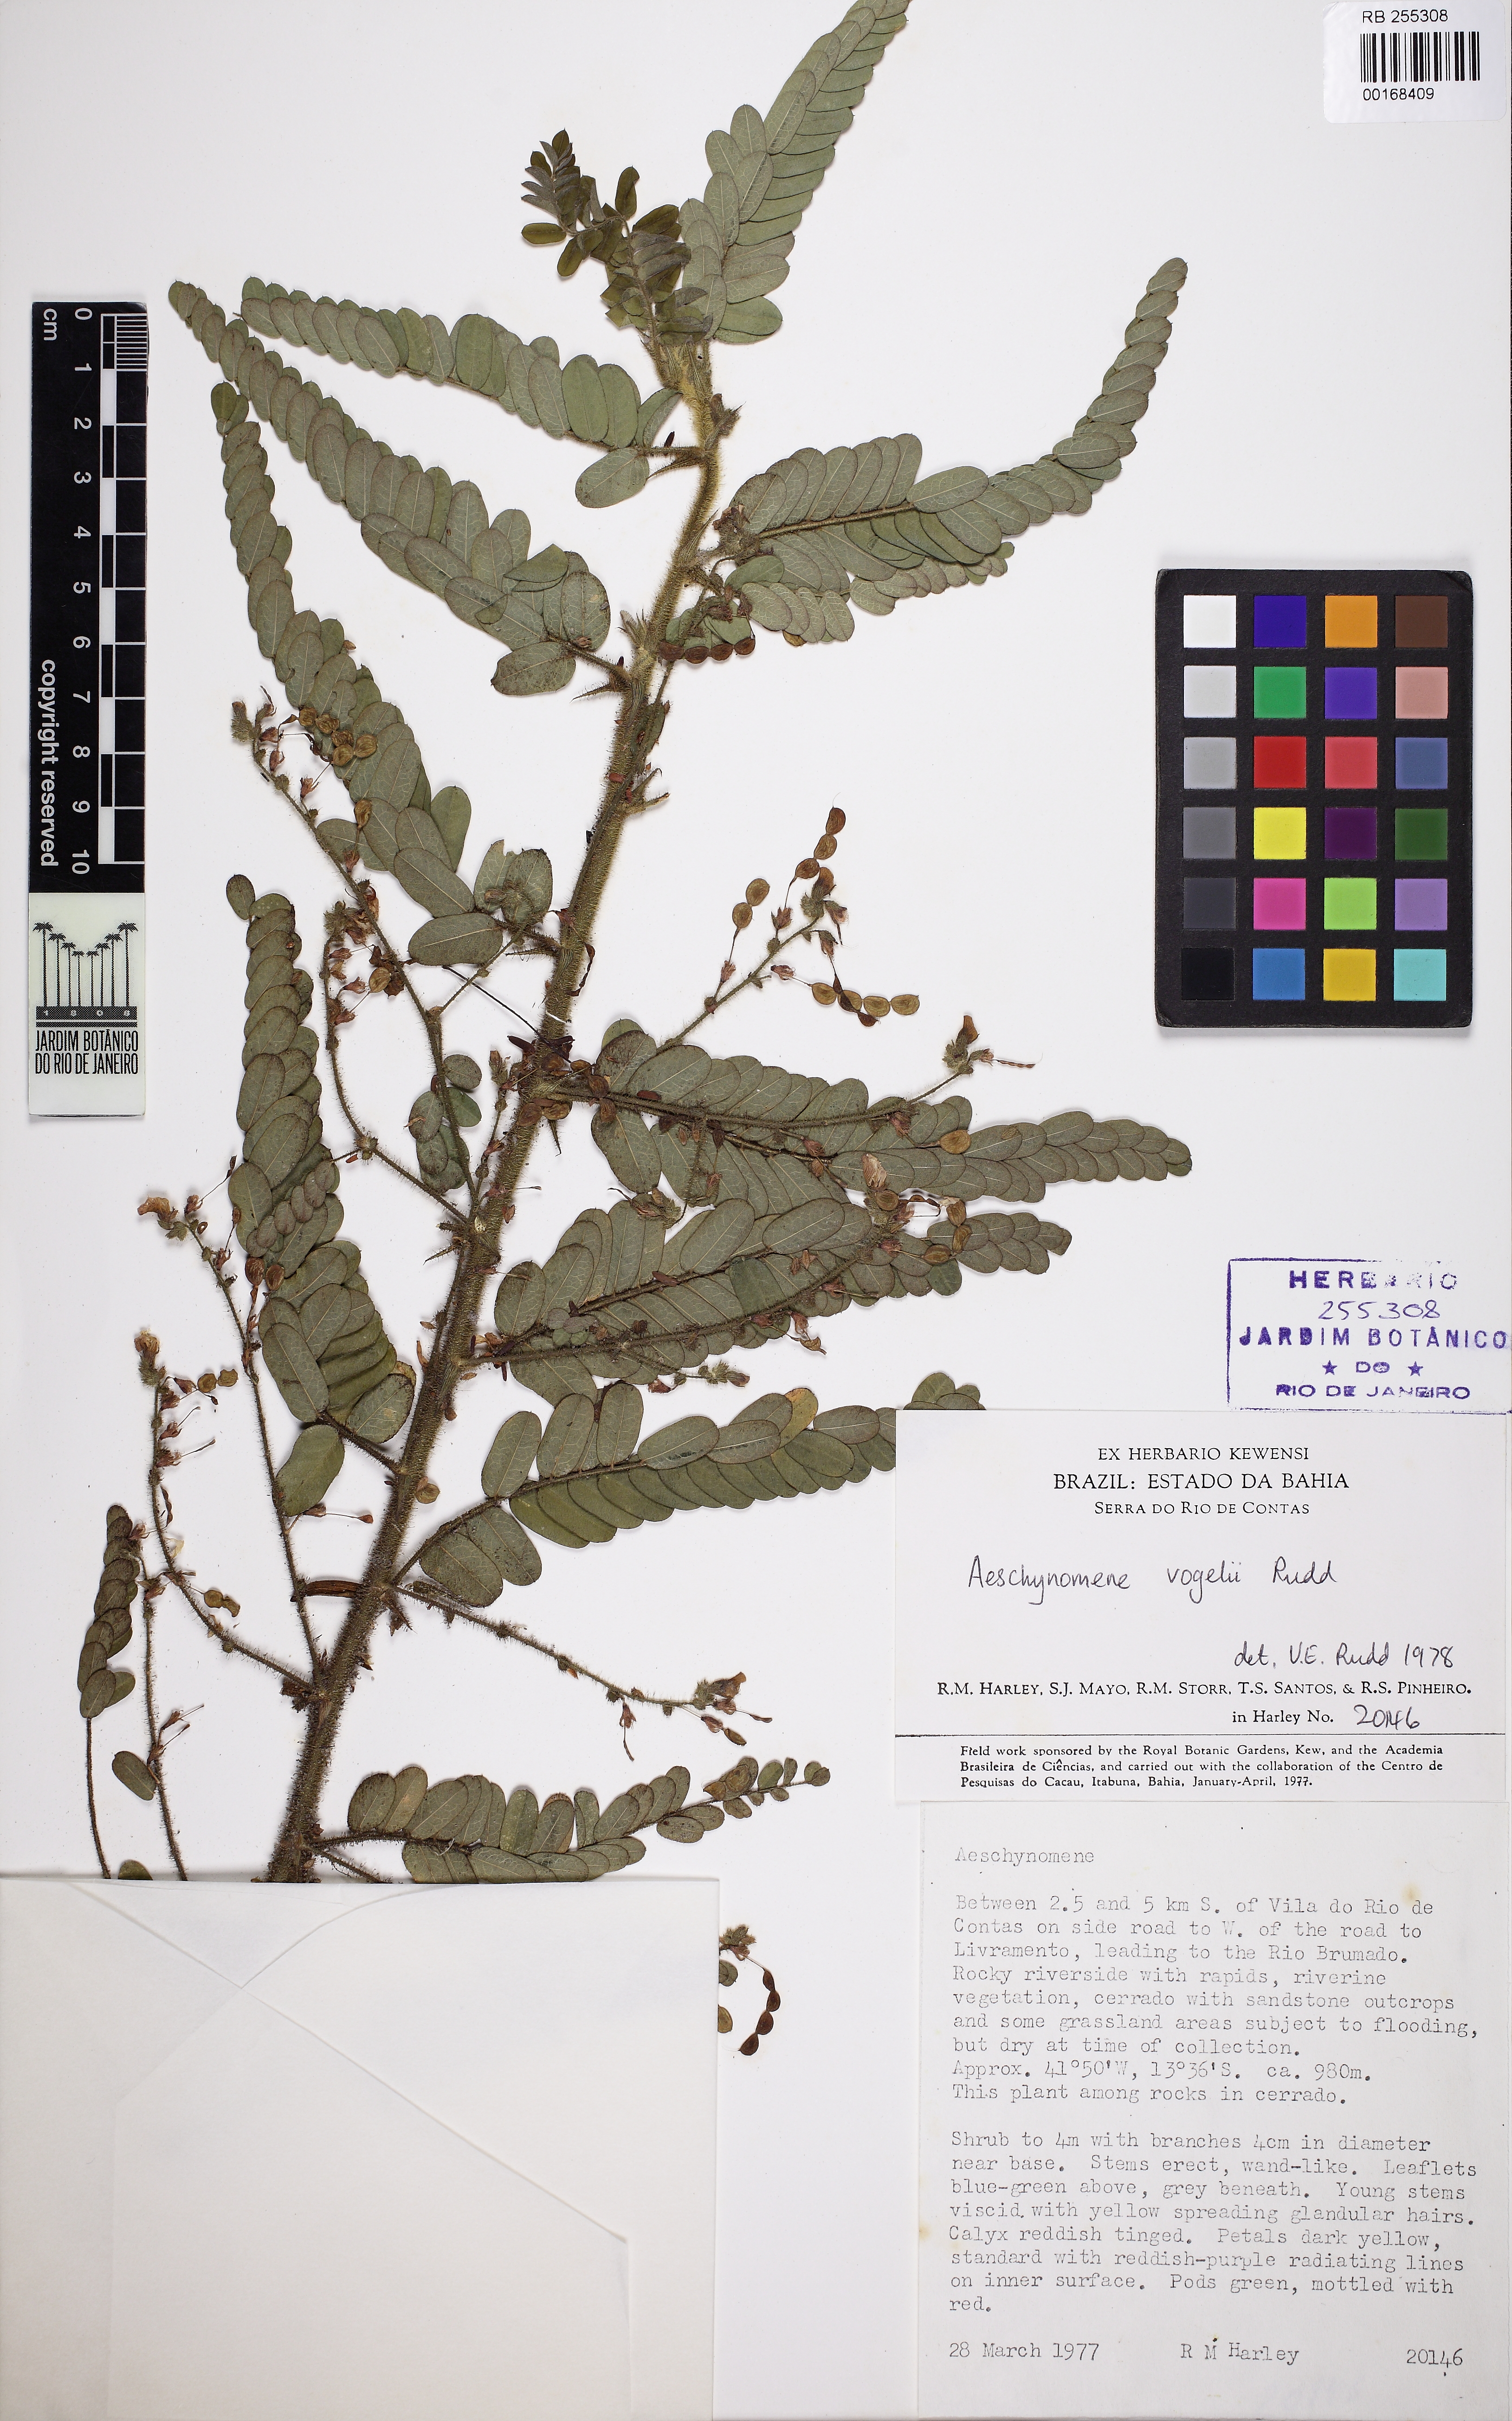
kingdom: Plantae
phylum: Tracheophyta
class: Magnoliopsida
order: Fabales
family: Fabaceae
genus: Ctenodon
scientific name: Ctenodon vogelii
